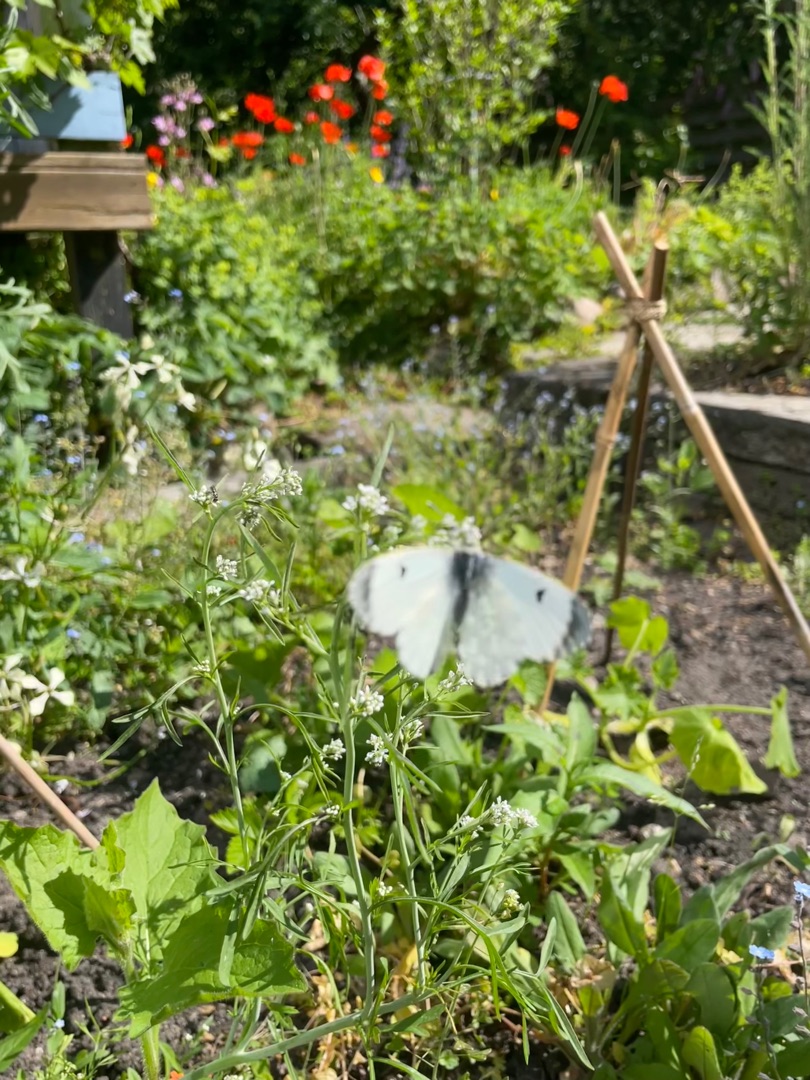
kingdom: Animalia
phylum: Arthropoda
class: Insecta
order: Lepidoptera
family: Pieridae
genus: Anthocharis
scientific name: Anthocharis cardamines
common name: Aurora
